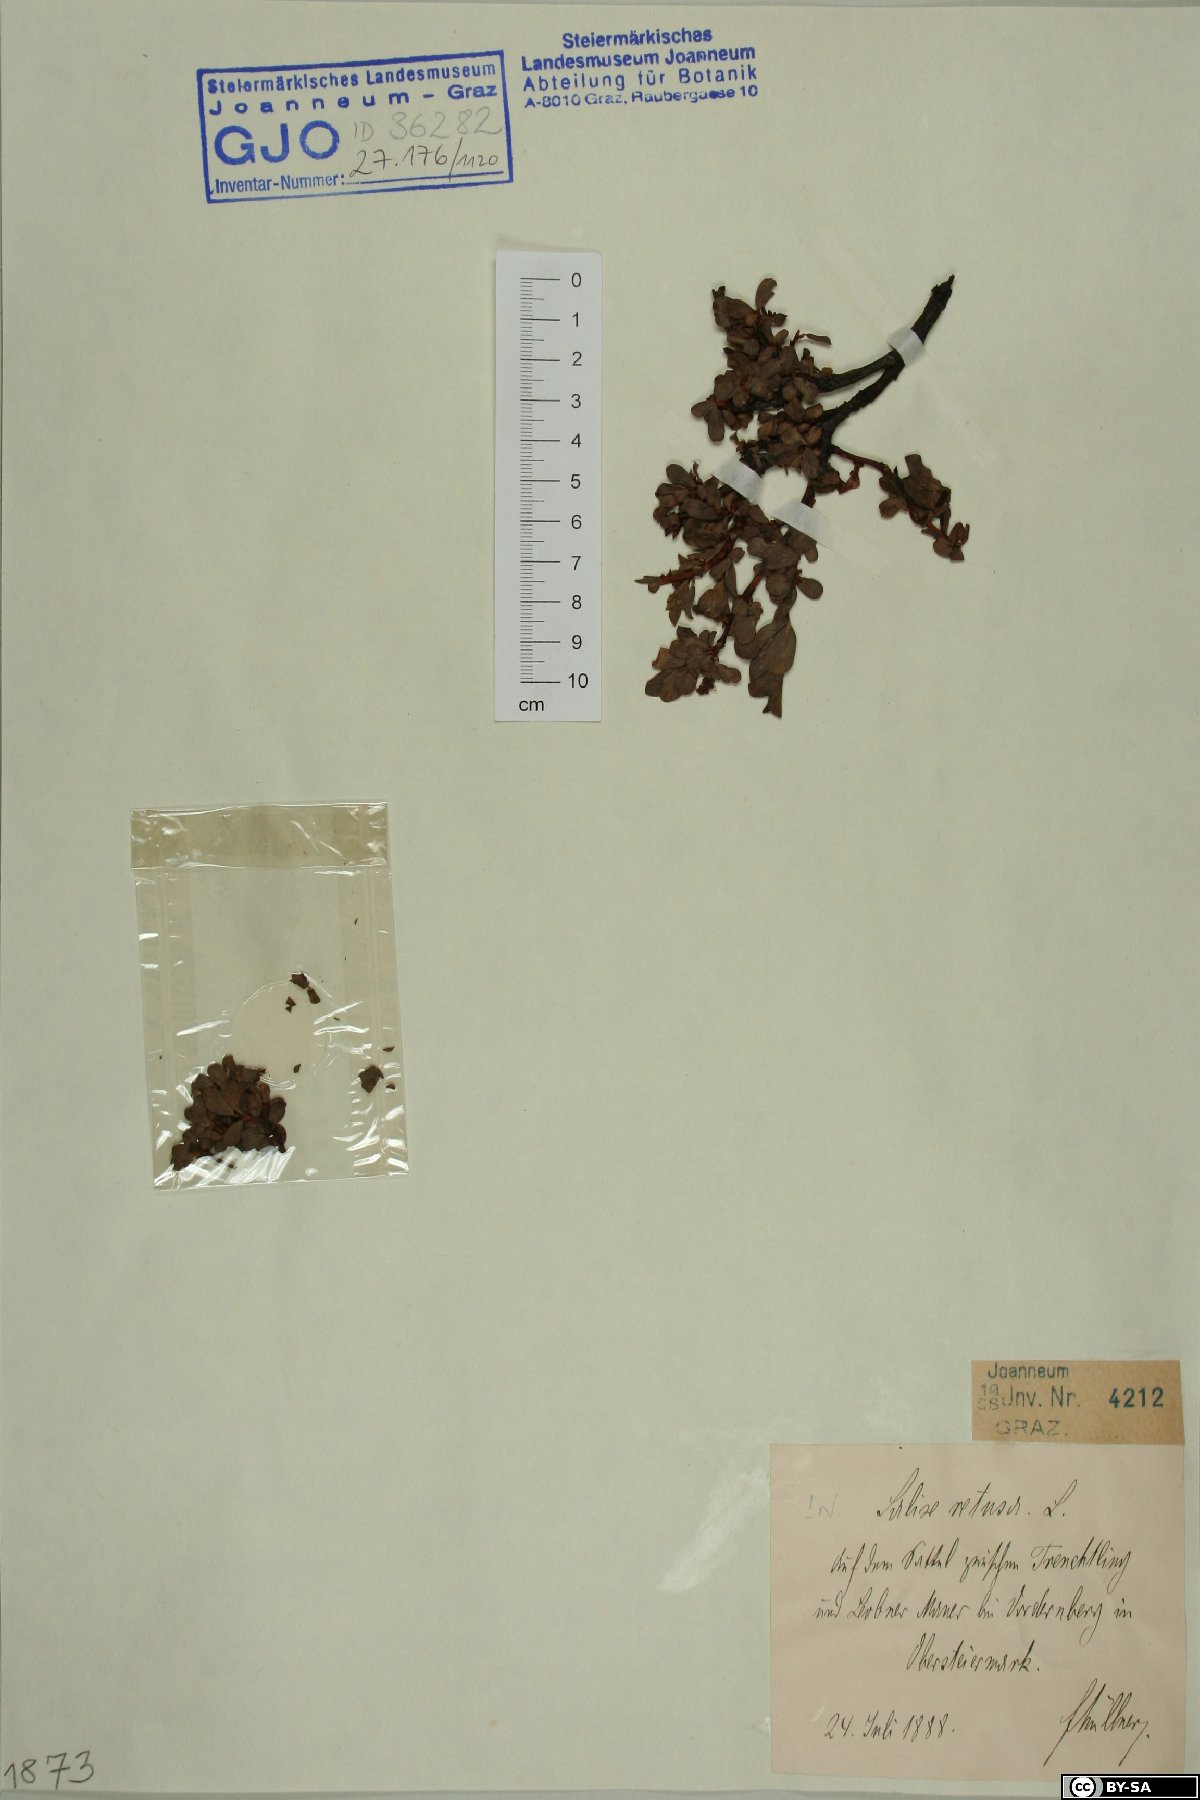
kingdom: Plantae
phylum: Tracheophyta
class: Magnoliopsida
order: Malpighiales
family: Salicaceae
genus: Salix
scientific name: Salix retusa
